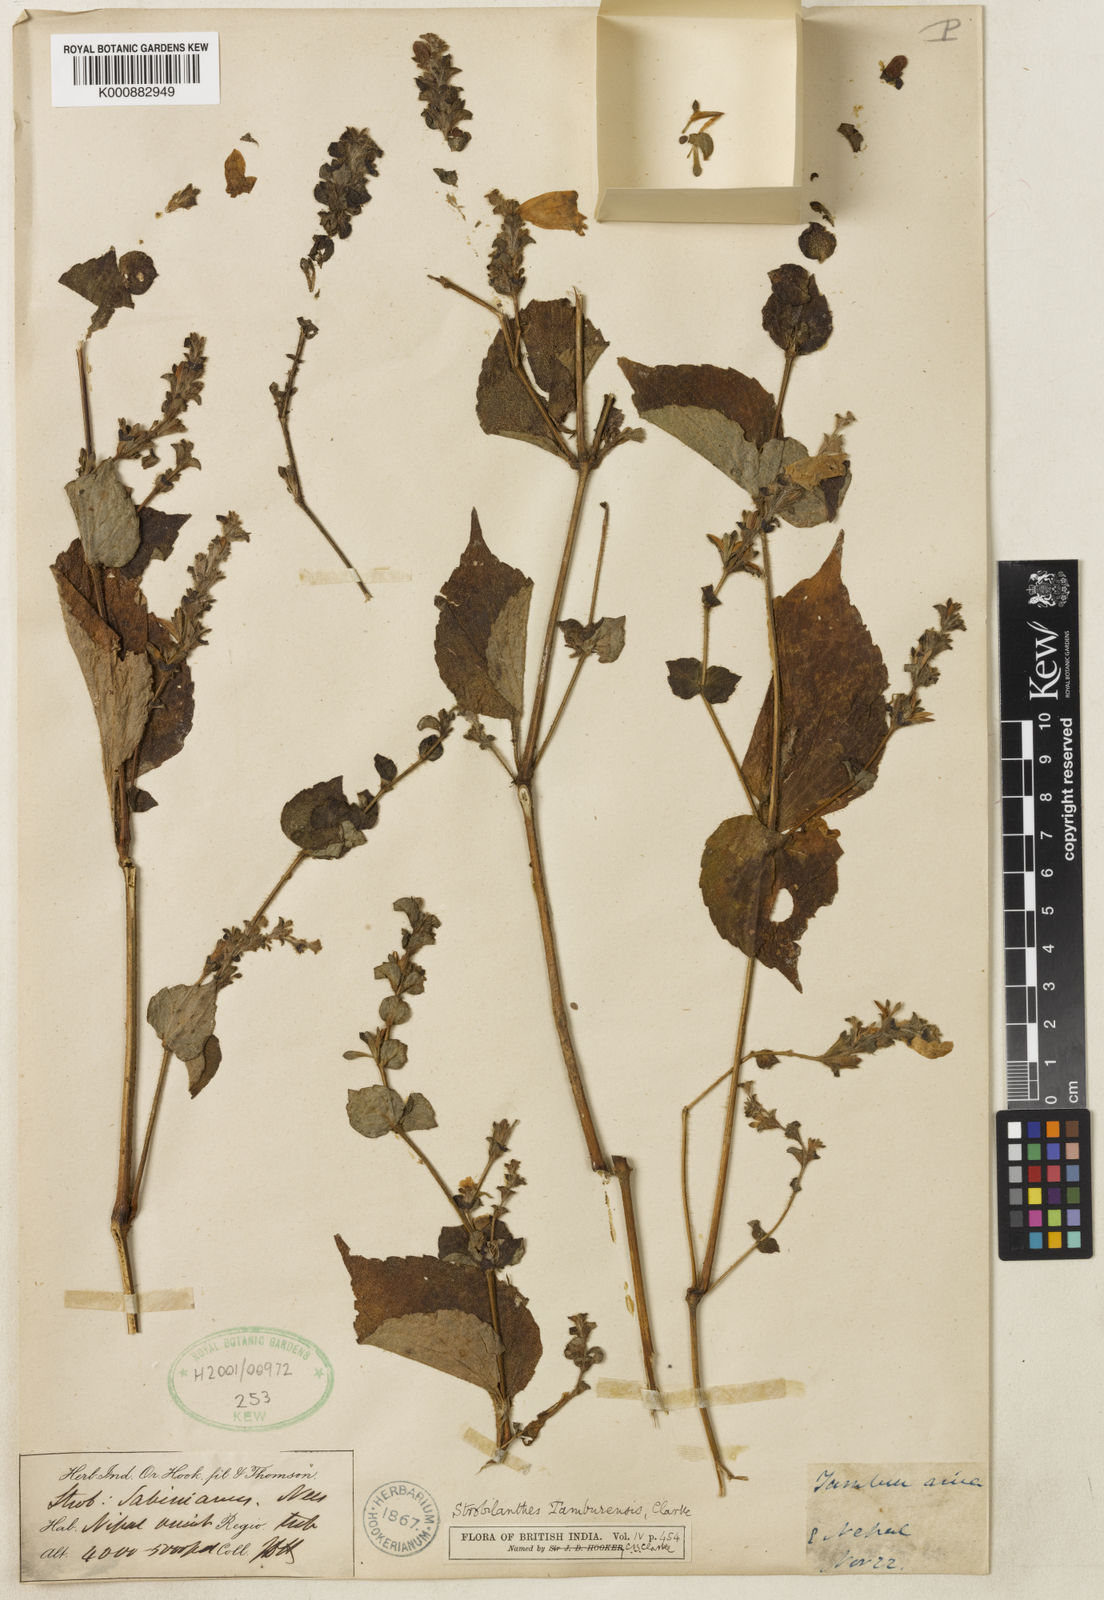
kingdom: Plantae
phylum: Tracheophyta
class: Magnoliopsida
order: Lamiales
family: Acanthaceae
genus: Strobilanthes
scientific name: Strobilanthes tamburensis
